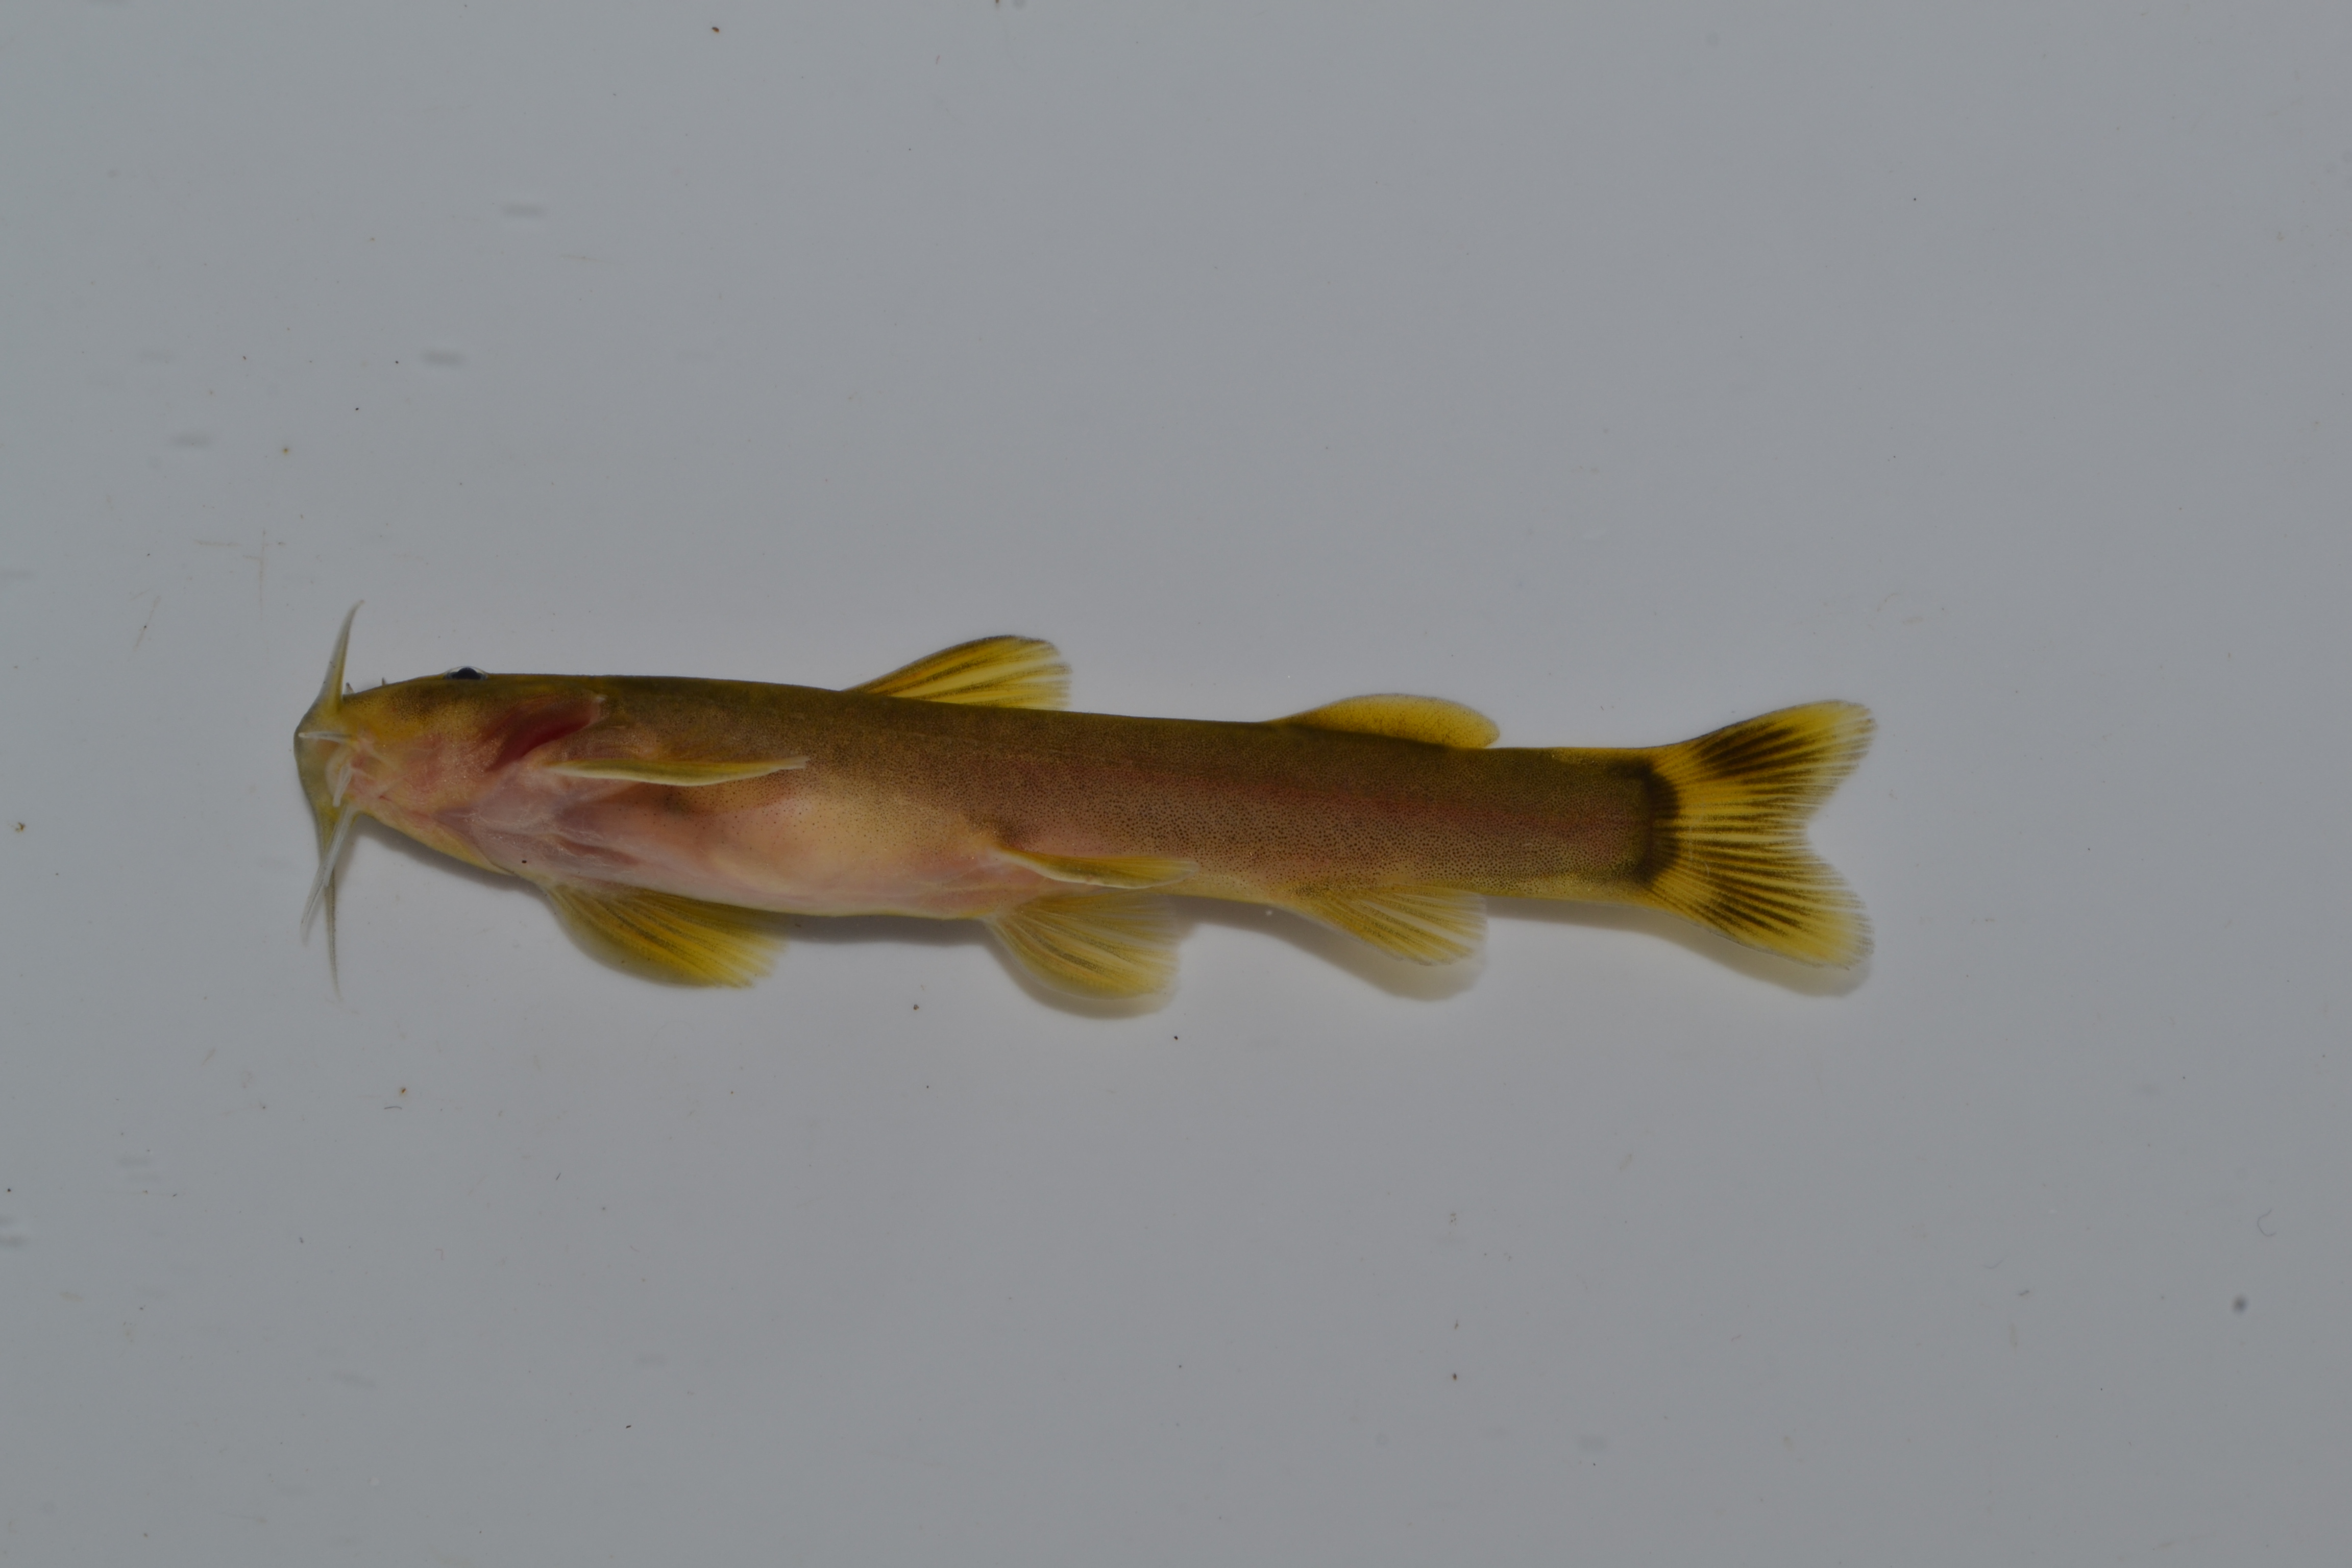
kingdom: Animalia
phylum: Chordata
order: Siluriformes
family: Amphiliidae
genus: Amphilius
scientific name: Amphilius uranoscopus
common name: Stargazer mountain catfish
